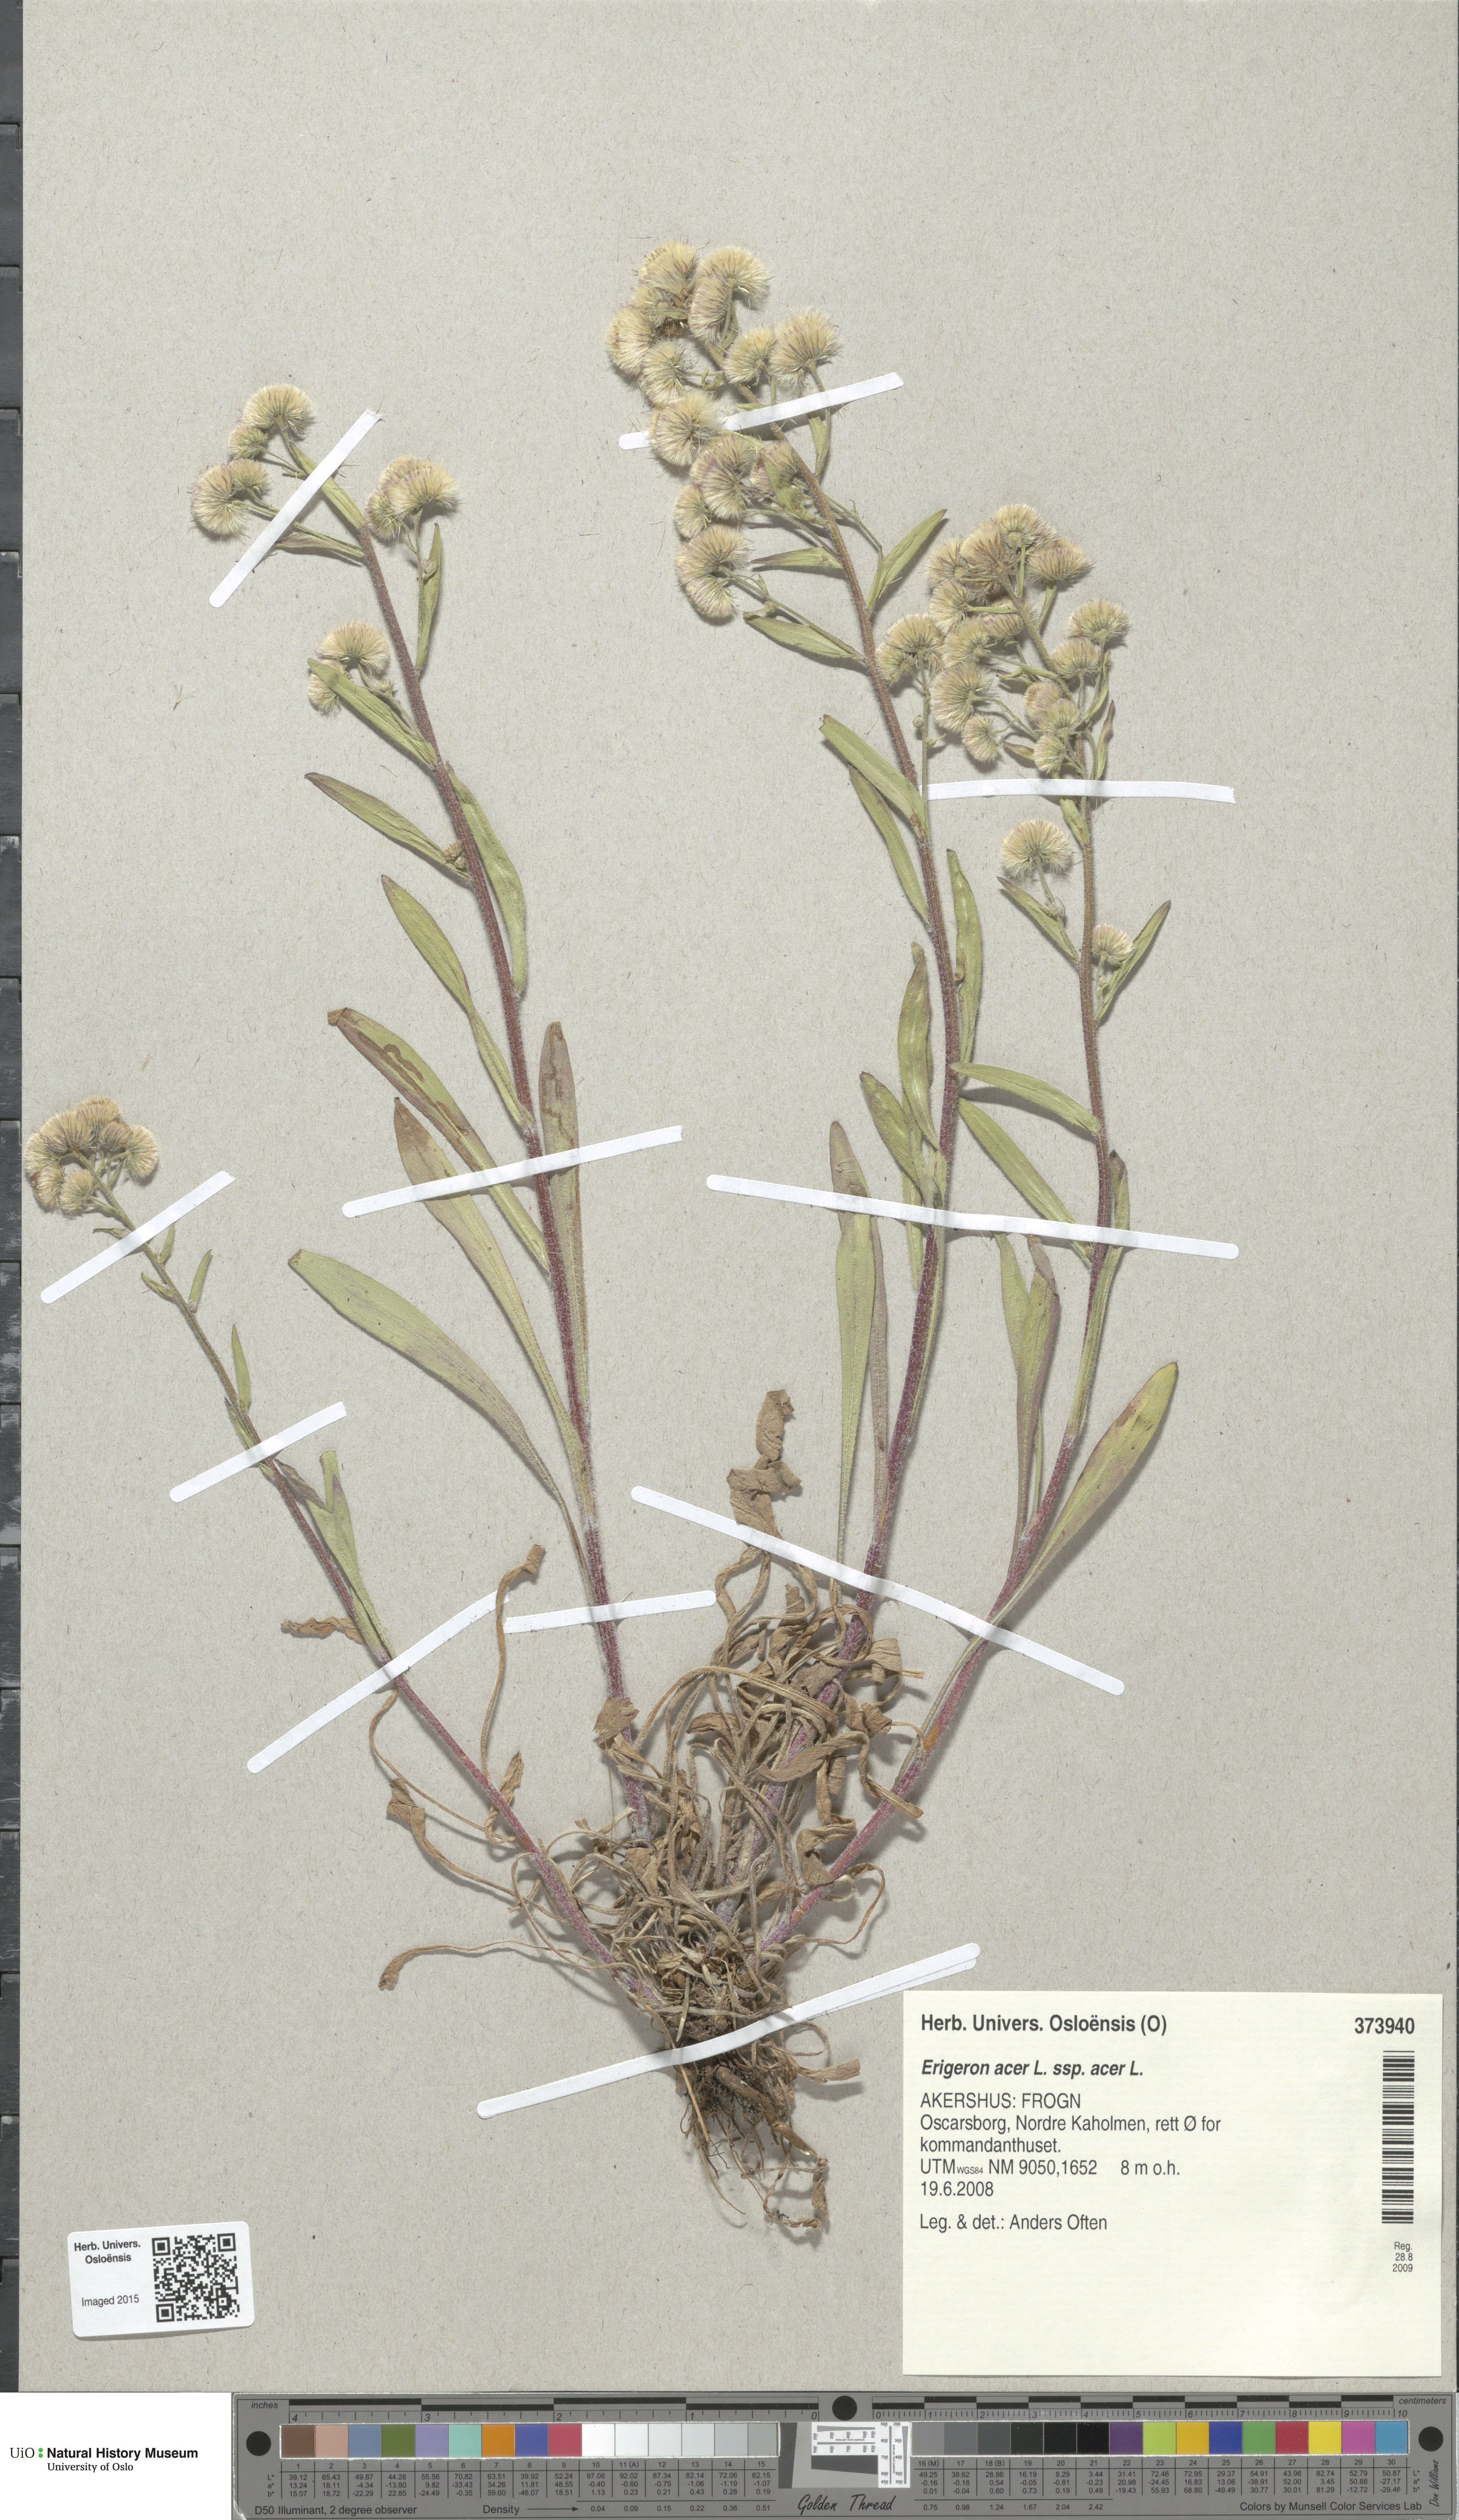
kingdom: Plantae
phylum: Tracheophyta
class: Magnoliopsida
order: Asterales
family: Asteraceae
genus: Erigeron
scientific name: Erigeron acris
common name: Blue fleabane
